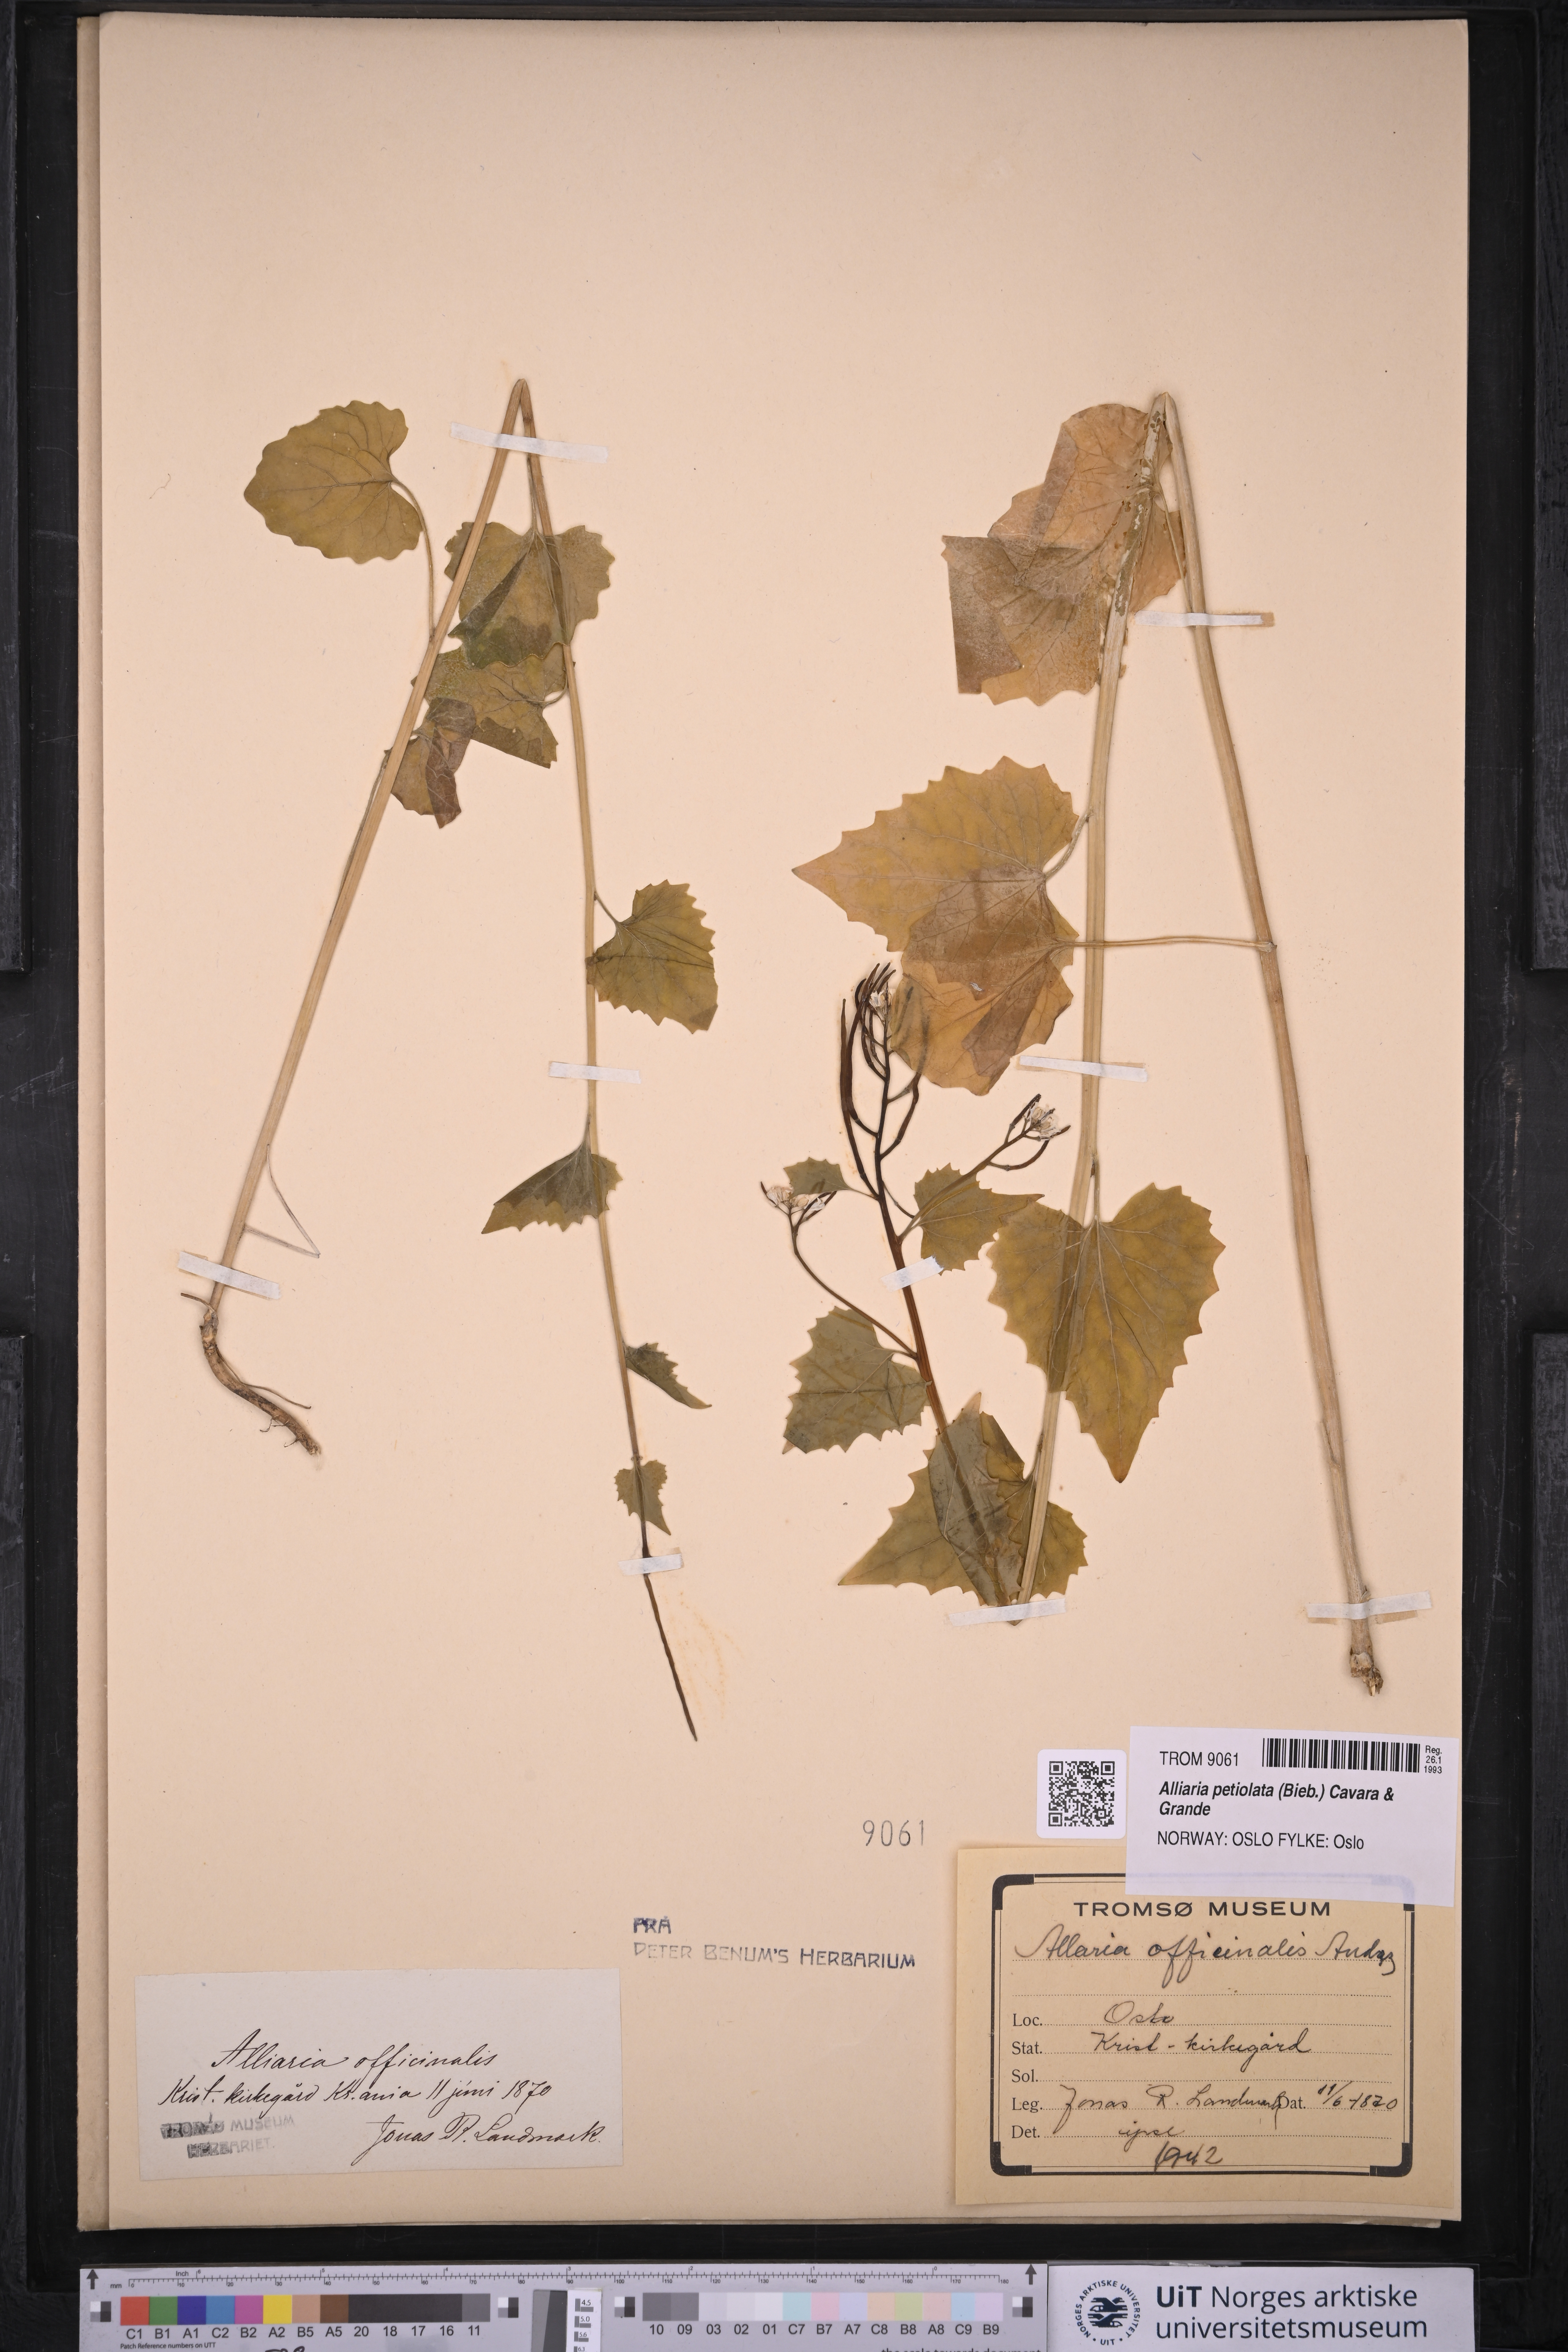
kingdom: Plantae
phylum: Tracheophyta
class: Magnoliopsida
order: Brassicales
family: Brassicaceae
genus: Alliaria
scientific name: Alliaria petiolata
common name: Garlic mustard
